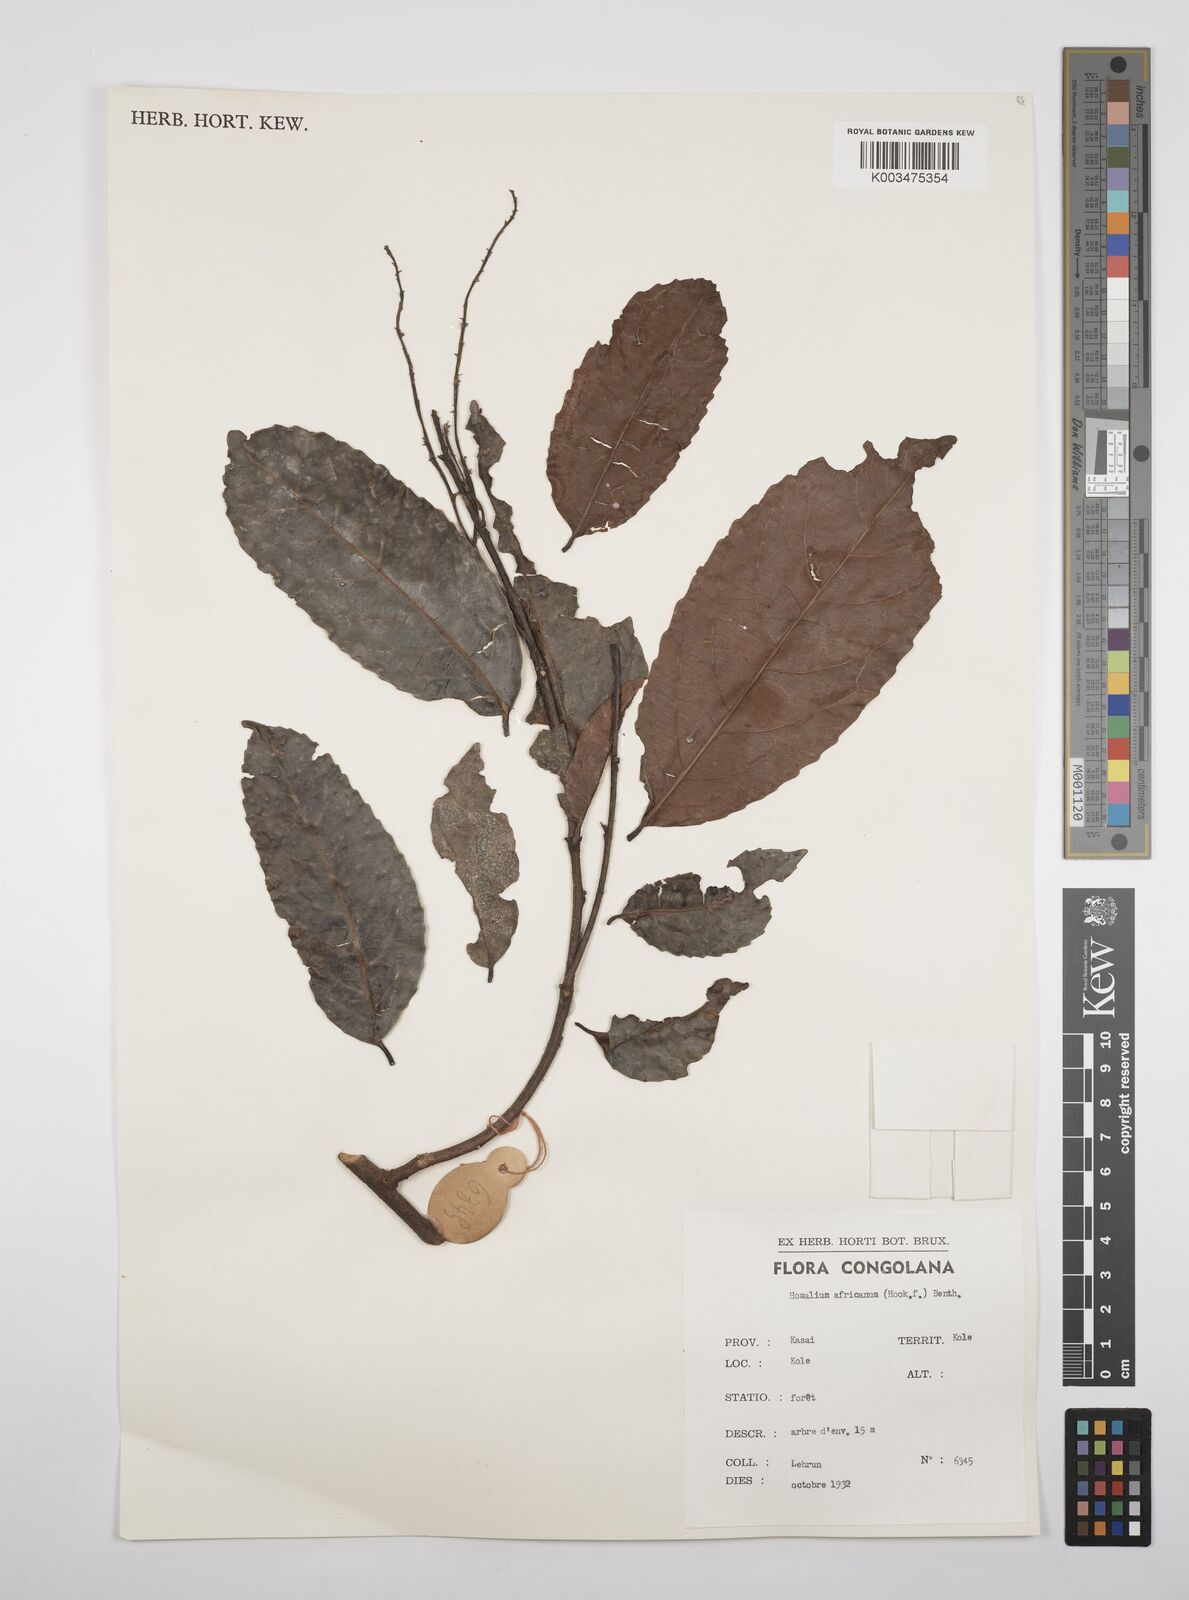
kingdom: Plantae
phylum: Tracheophyta
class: Magnoliopsida
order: Malpighiales
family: Salicaceae
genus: Homalium
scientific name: Homalium africanum
